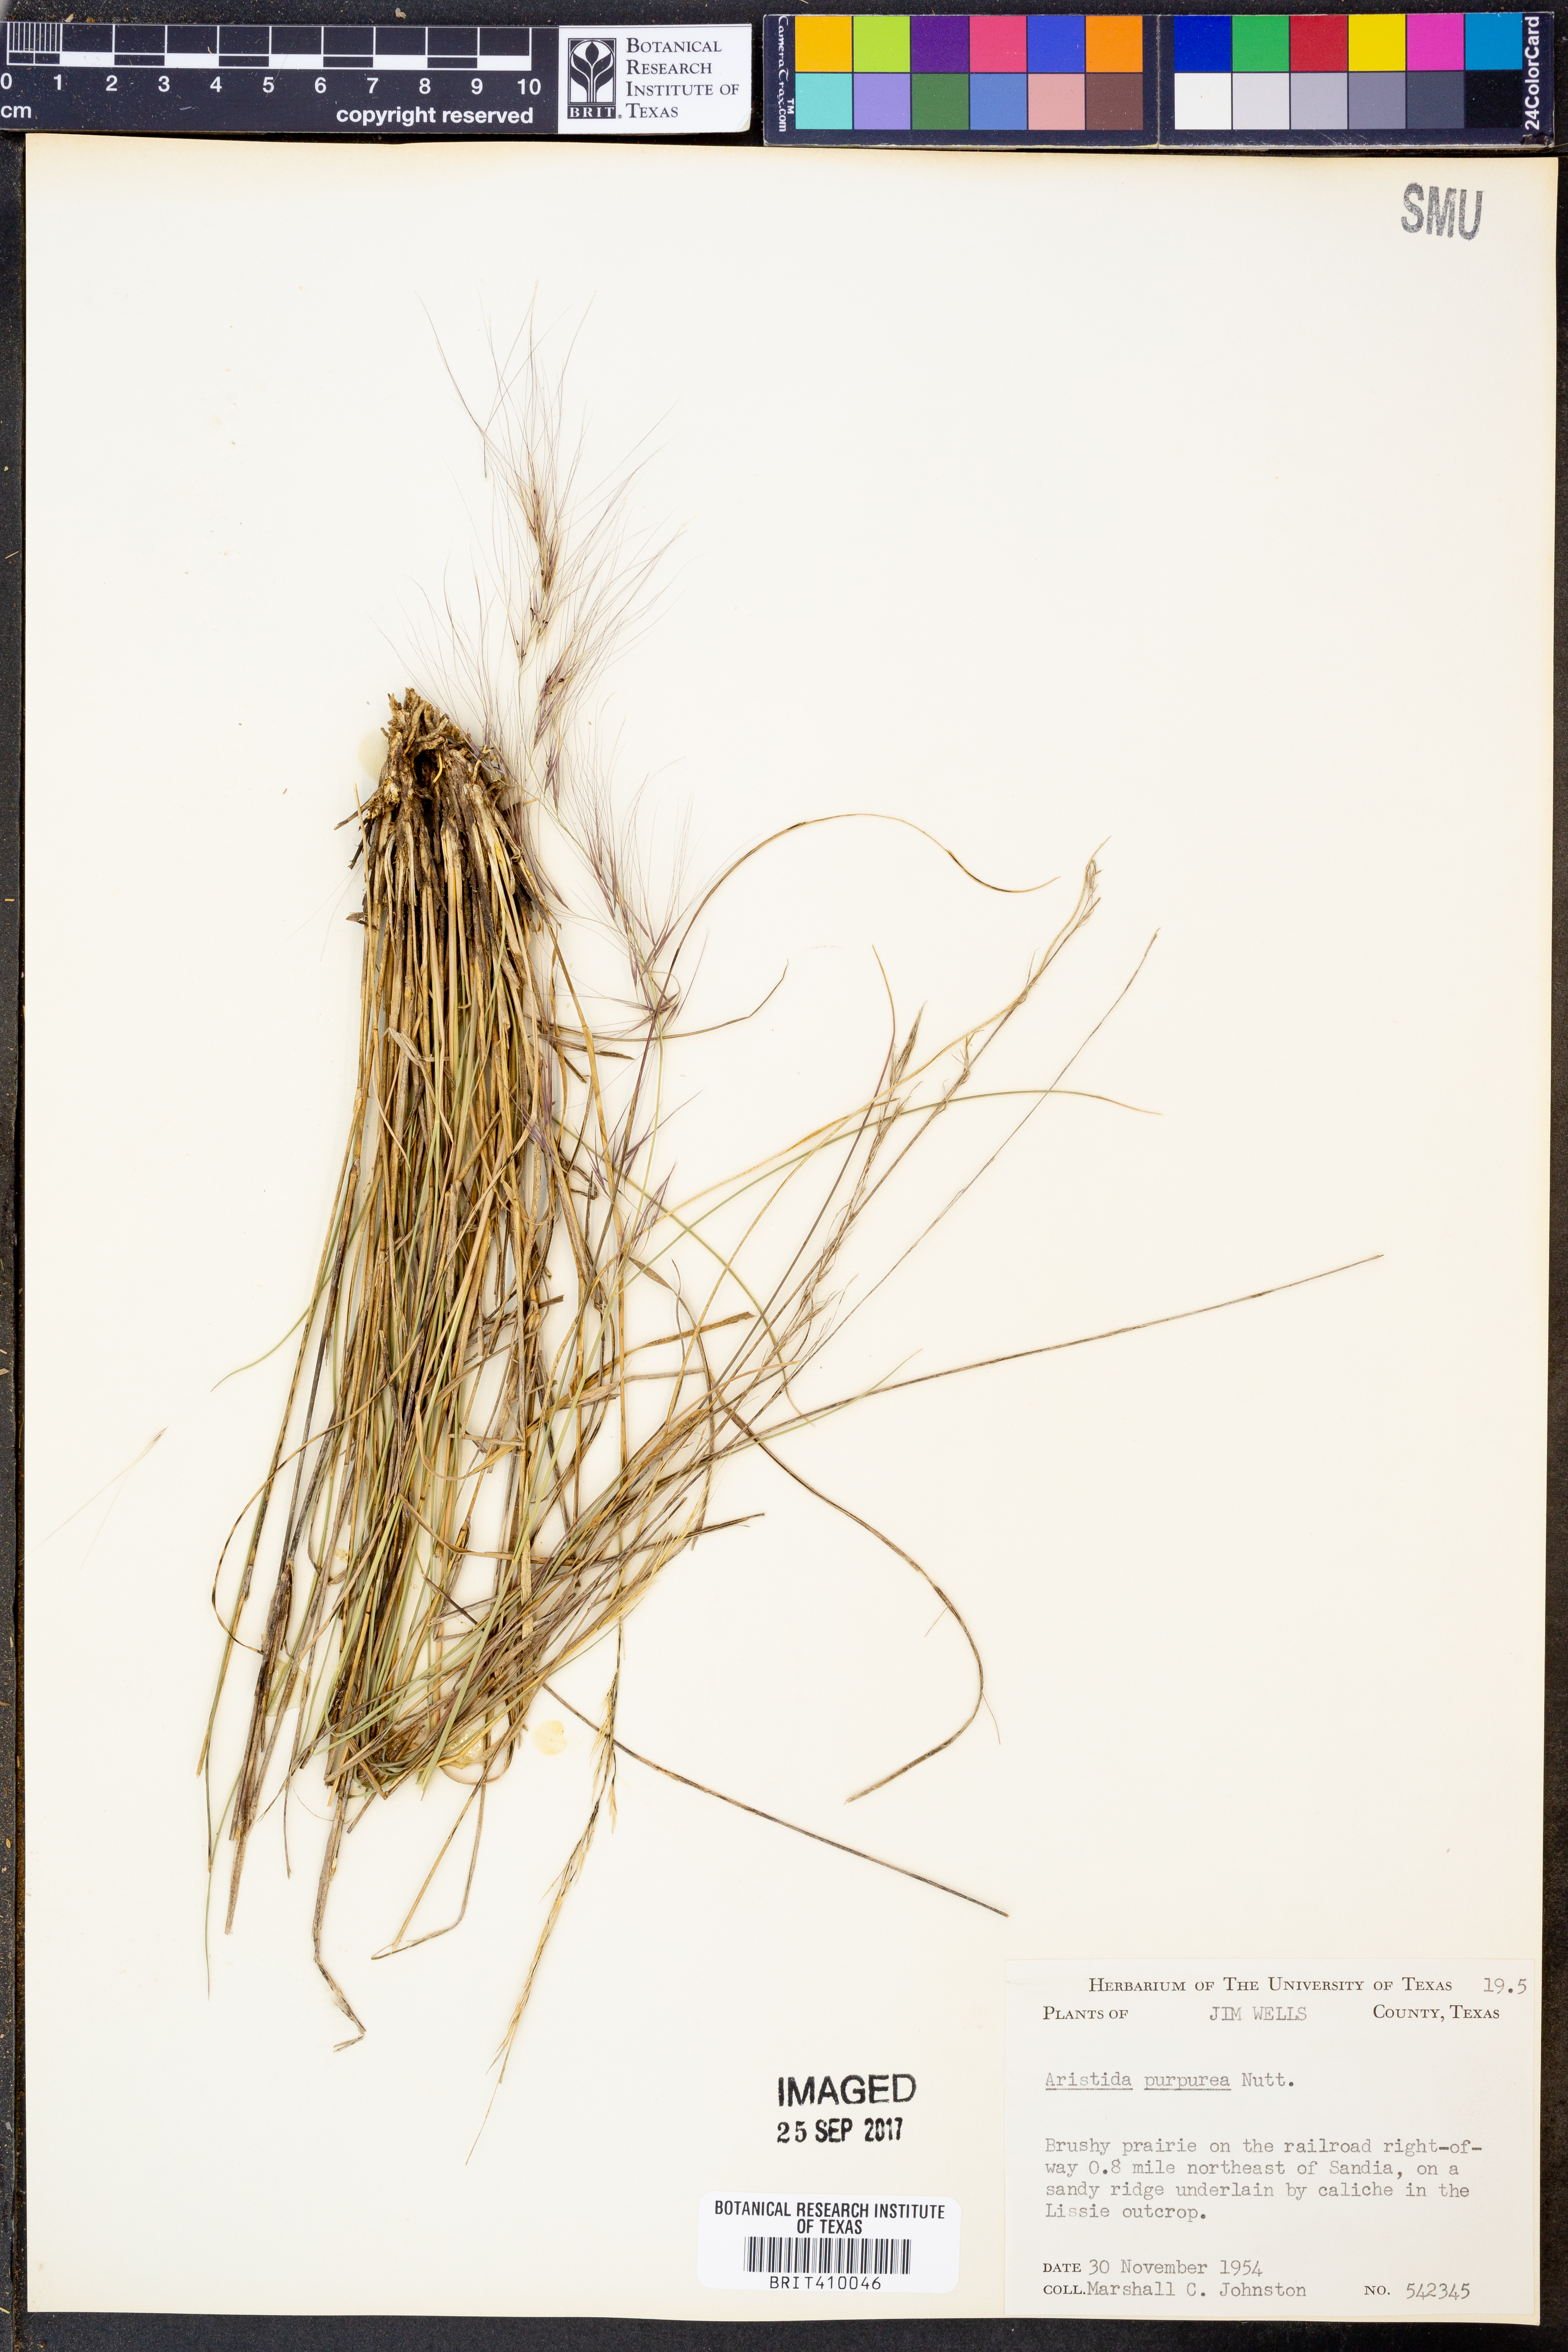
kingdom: Plantae
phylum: Tracheophyta
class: Liliopsida
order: Poales
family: Poaceae
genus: Aristida
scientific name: Aristida purpurea
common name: Purple threeawn
